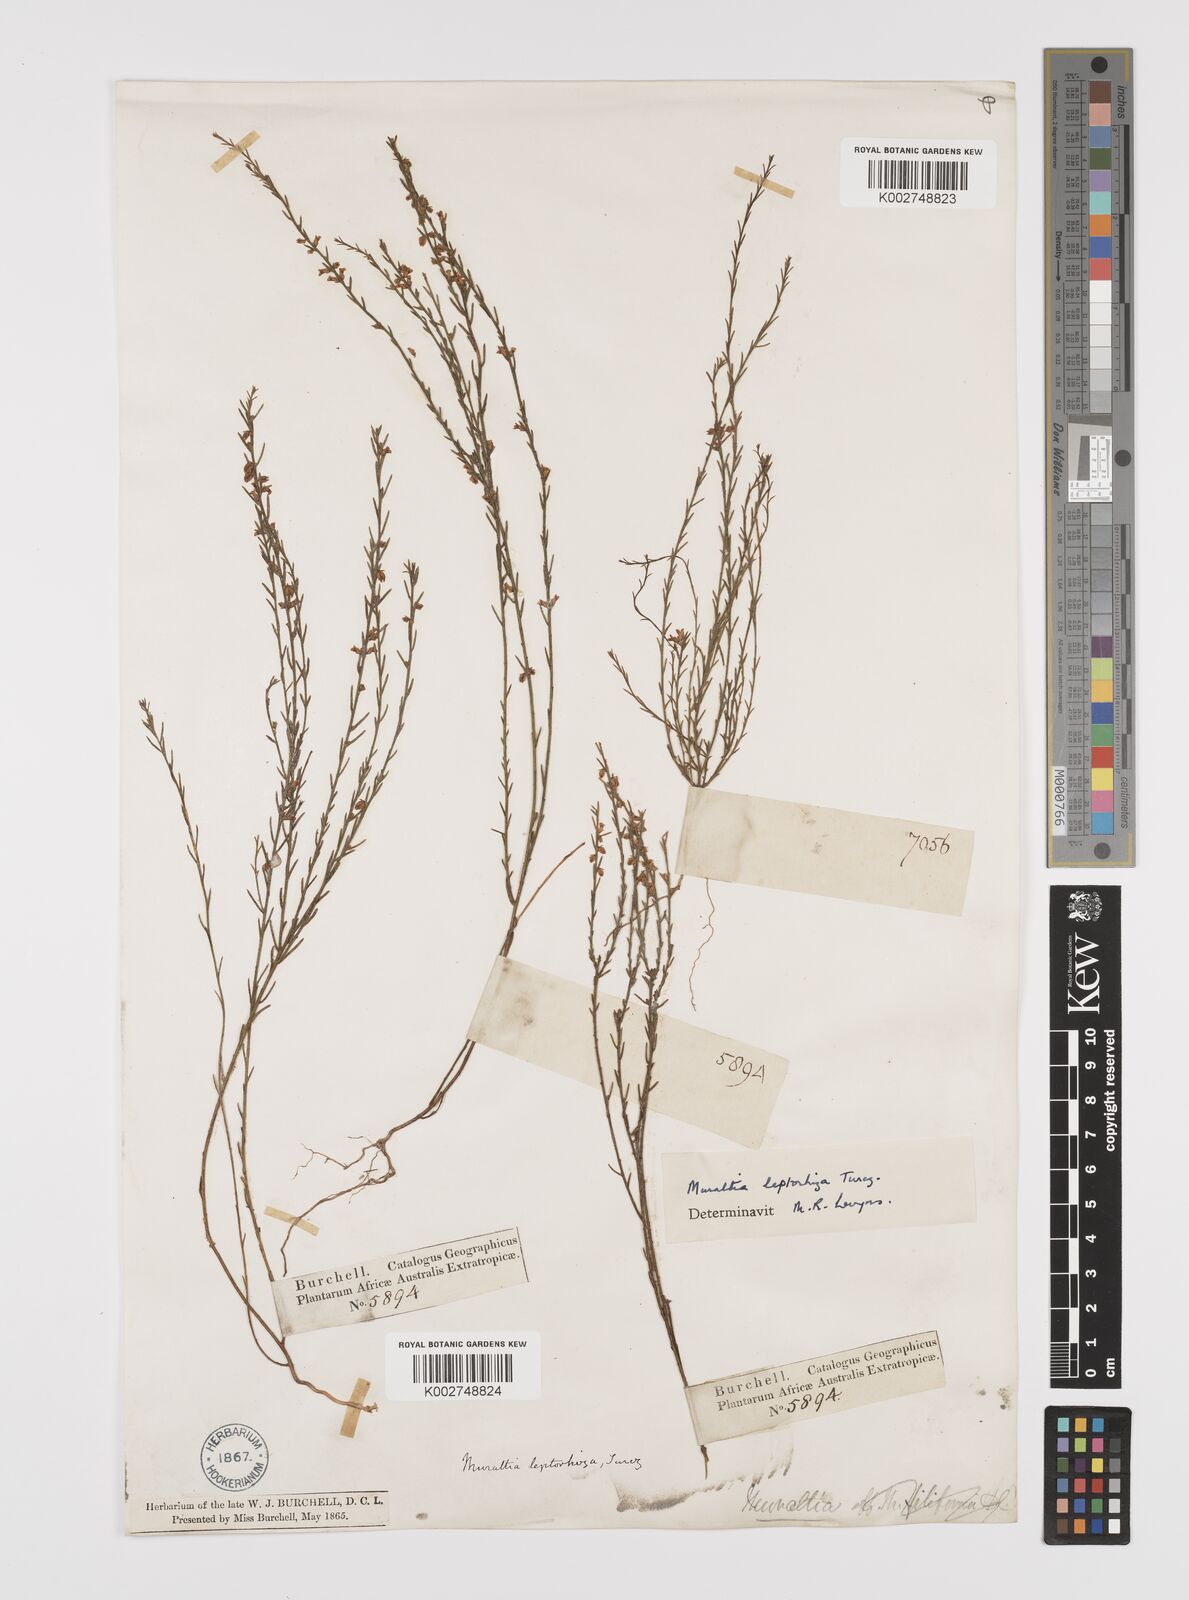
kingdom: Plantae
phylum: Tracheophyta
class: Magnoliopsida
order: Fabales
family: Polygalaceae
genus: Muraltia
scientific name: Muraltia leptorhiza
